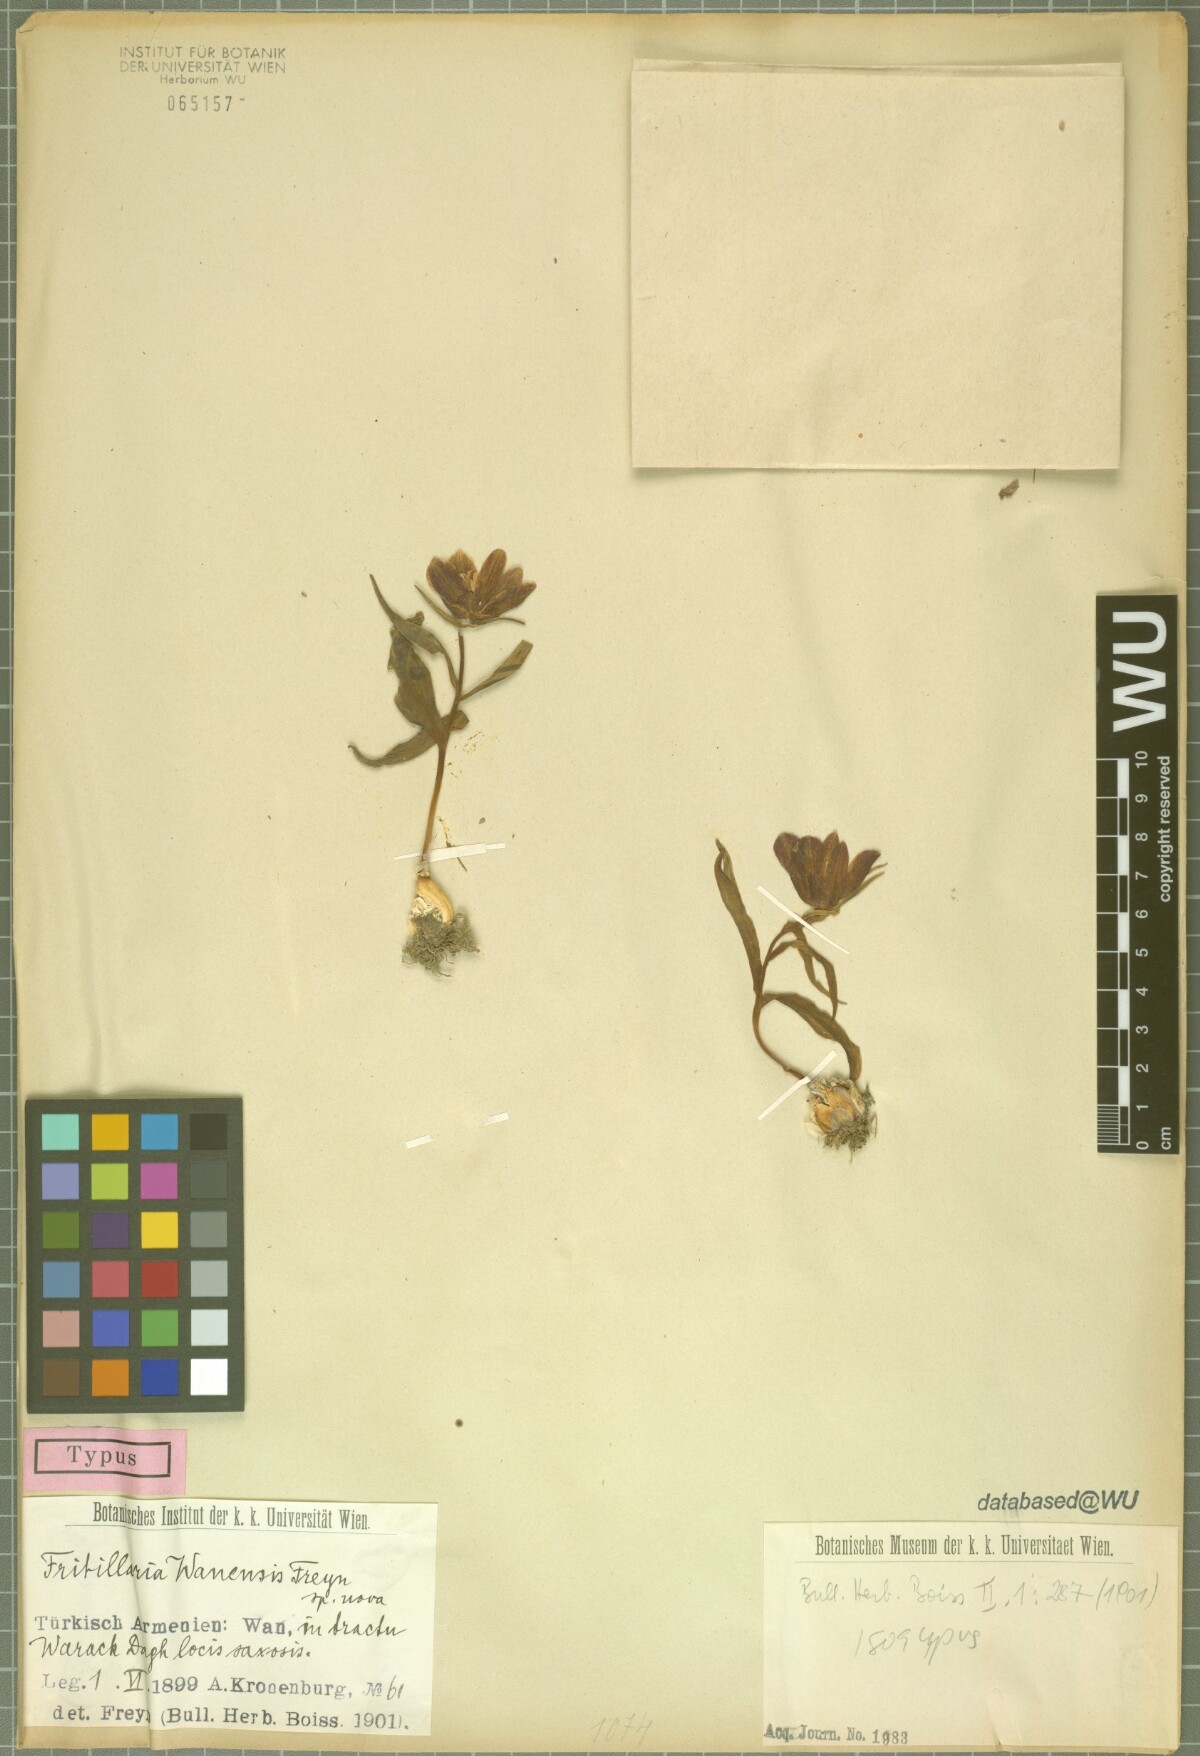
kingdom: Plantae
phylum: Tracheophyta
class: Liliopsida
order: Liliales
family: Liliaceae
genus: Fritillaria
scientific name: Fritillaria kurdica
